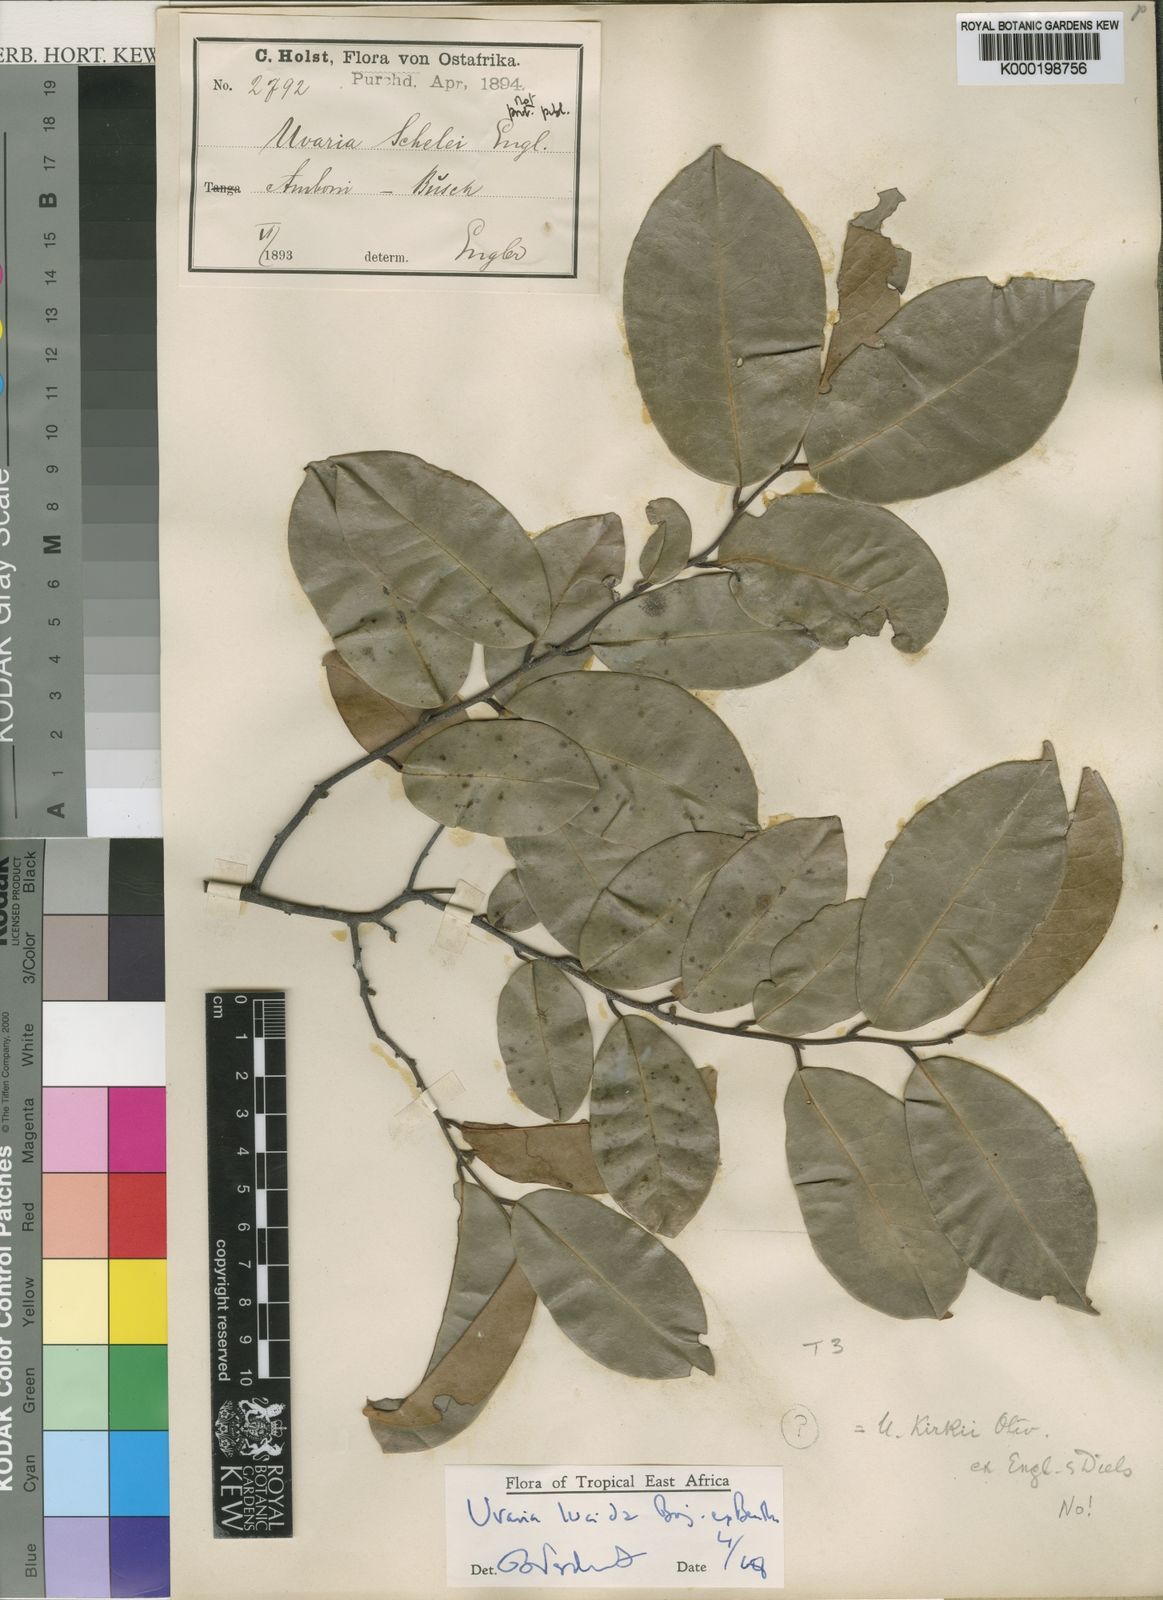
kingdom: Plantae
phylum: Tracheophyta
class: Magnoliopsida
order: Magnoliales
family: Annonaceae
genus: Uvaria
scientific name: Uvaria lucida
